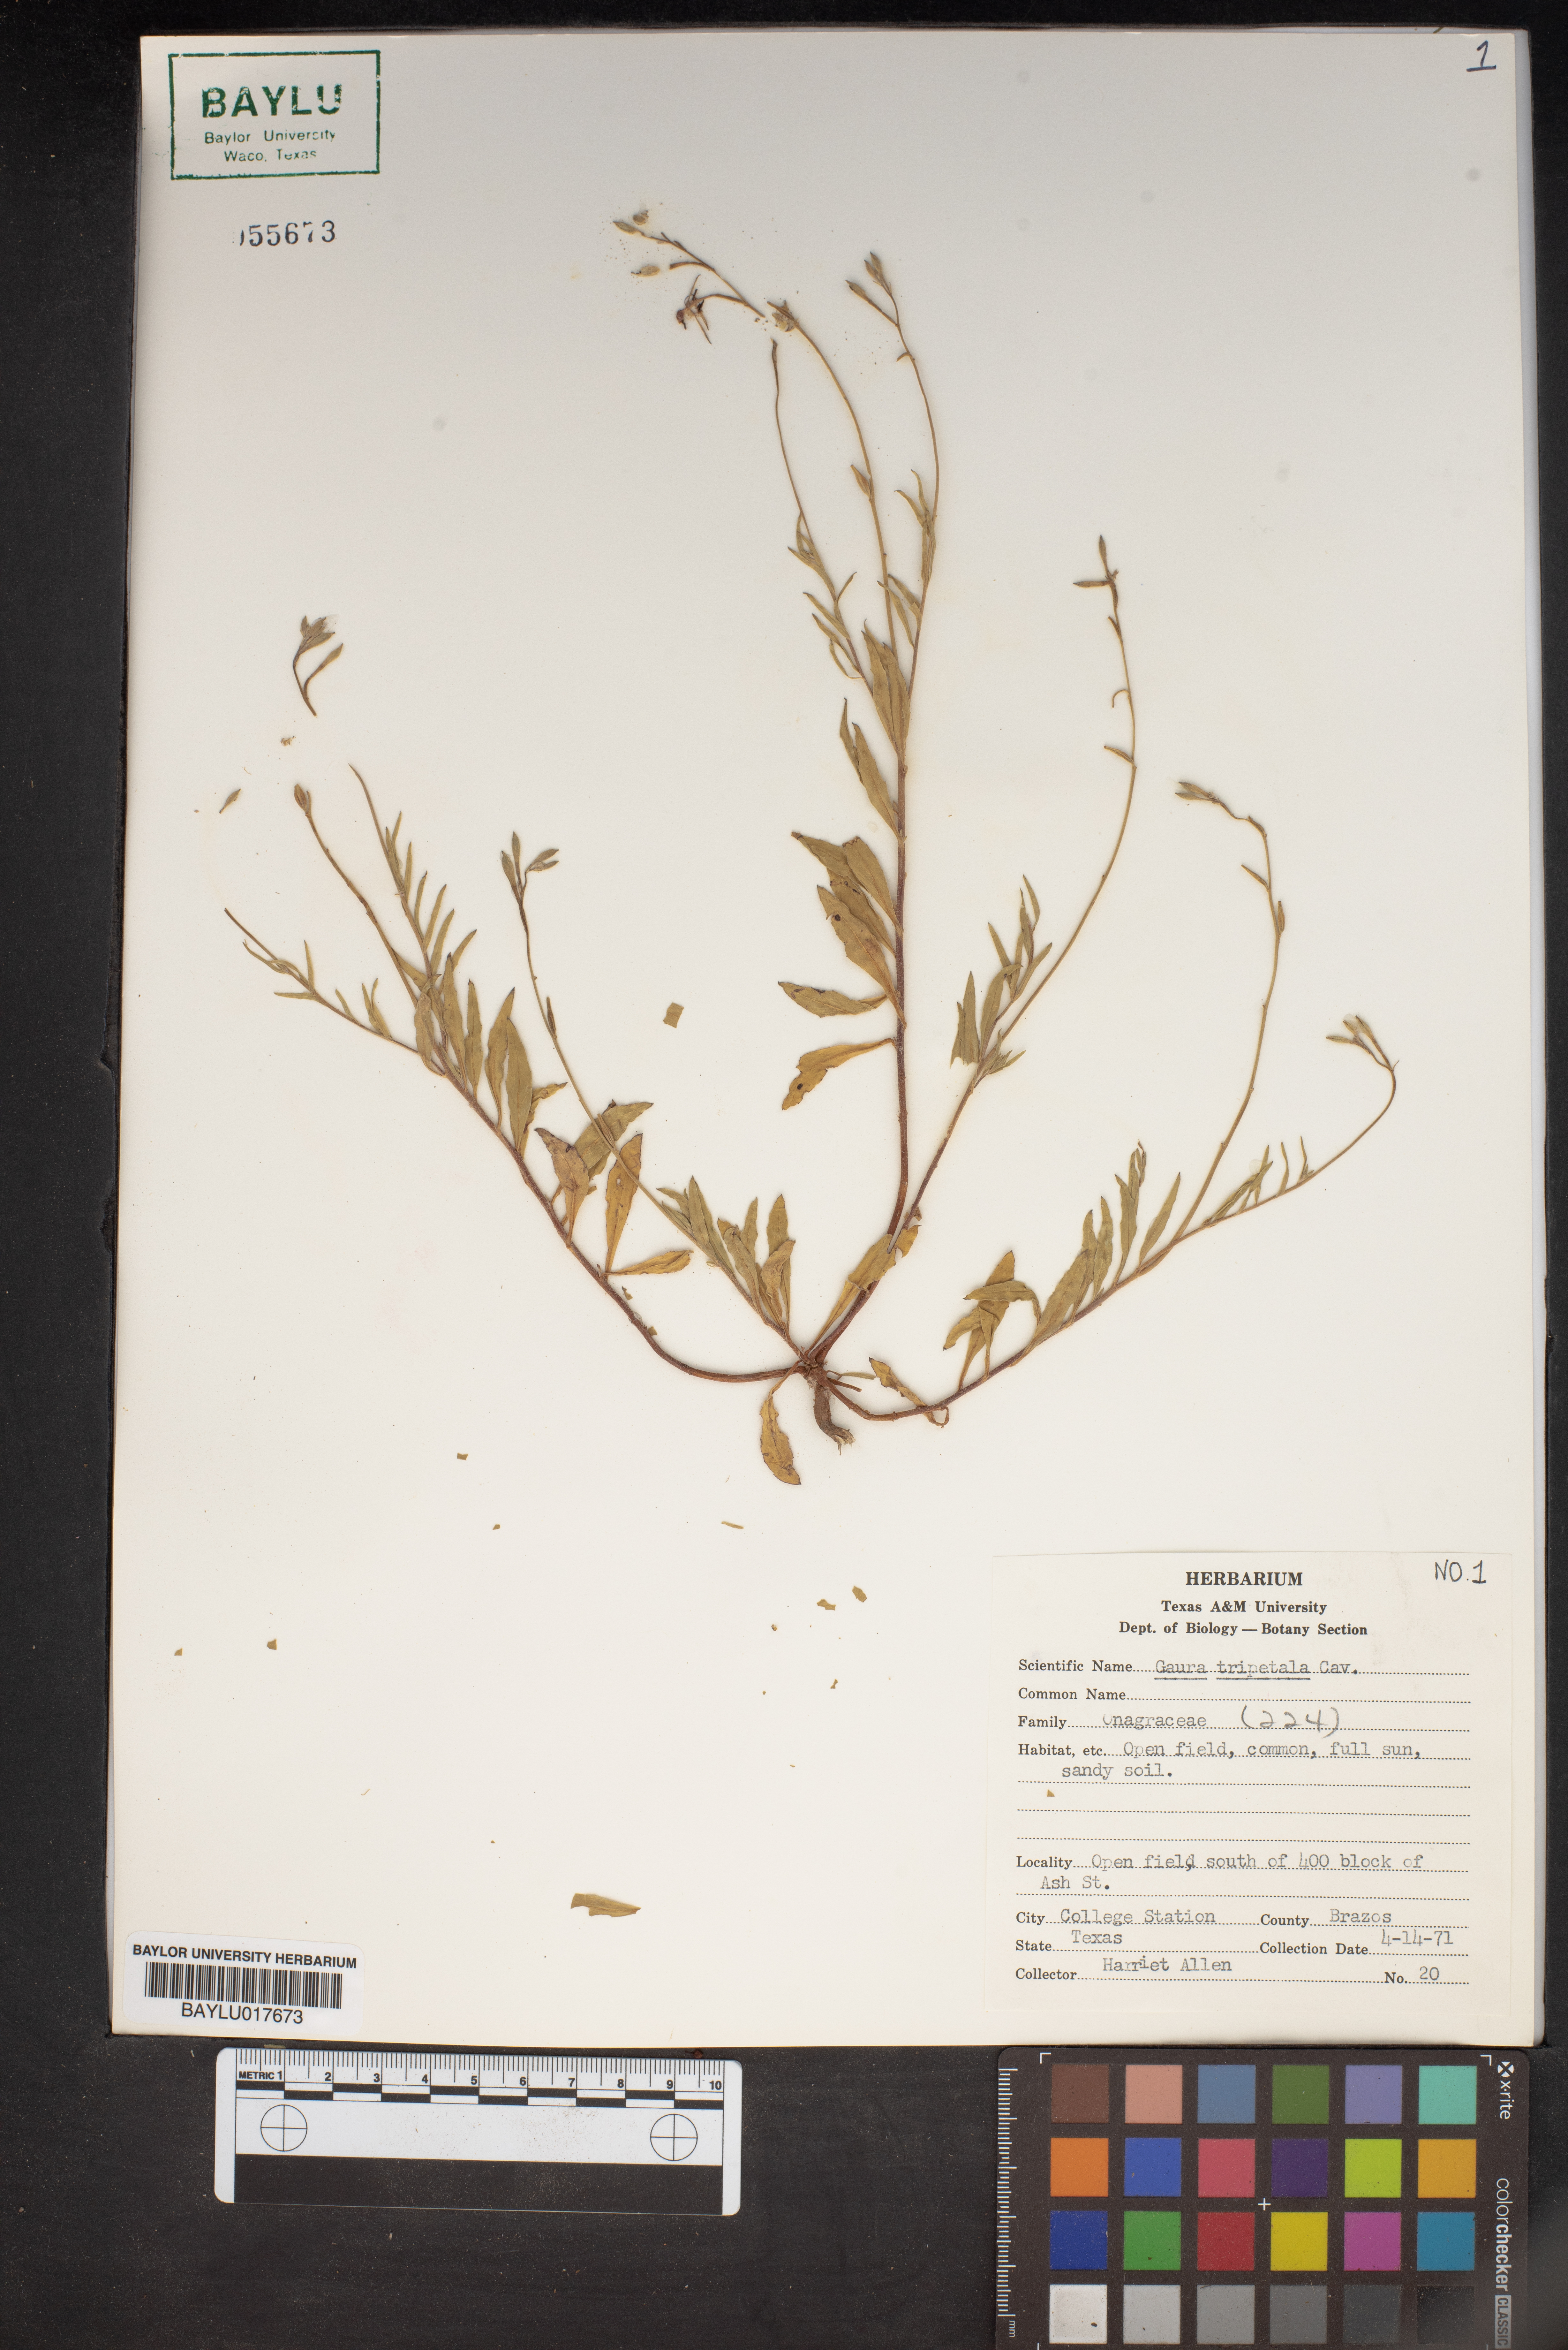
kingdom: Plantae
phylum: Tracheophyta
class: Magnoliopsida
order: Myrtales
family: Onagraceae
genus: Oenothera
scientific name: Oenothera hexandra
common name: Harlequinbush
